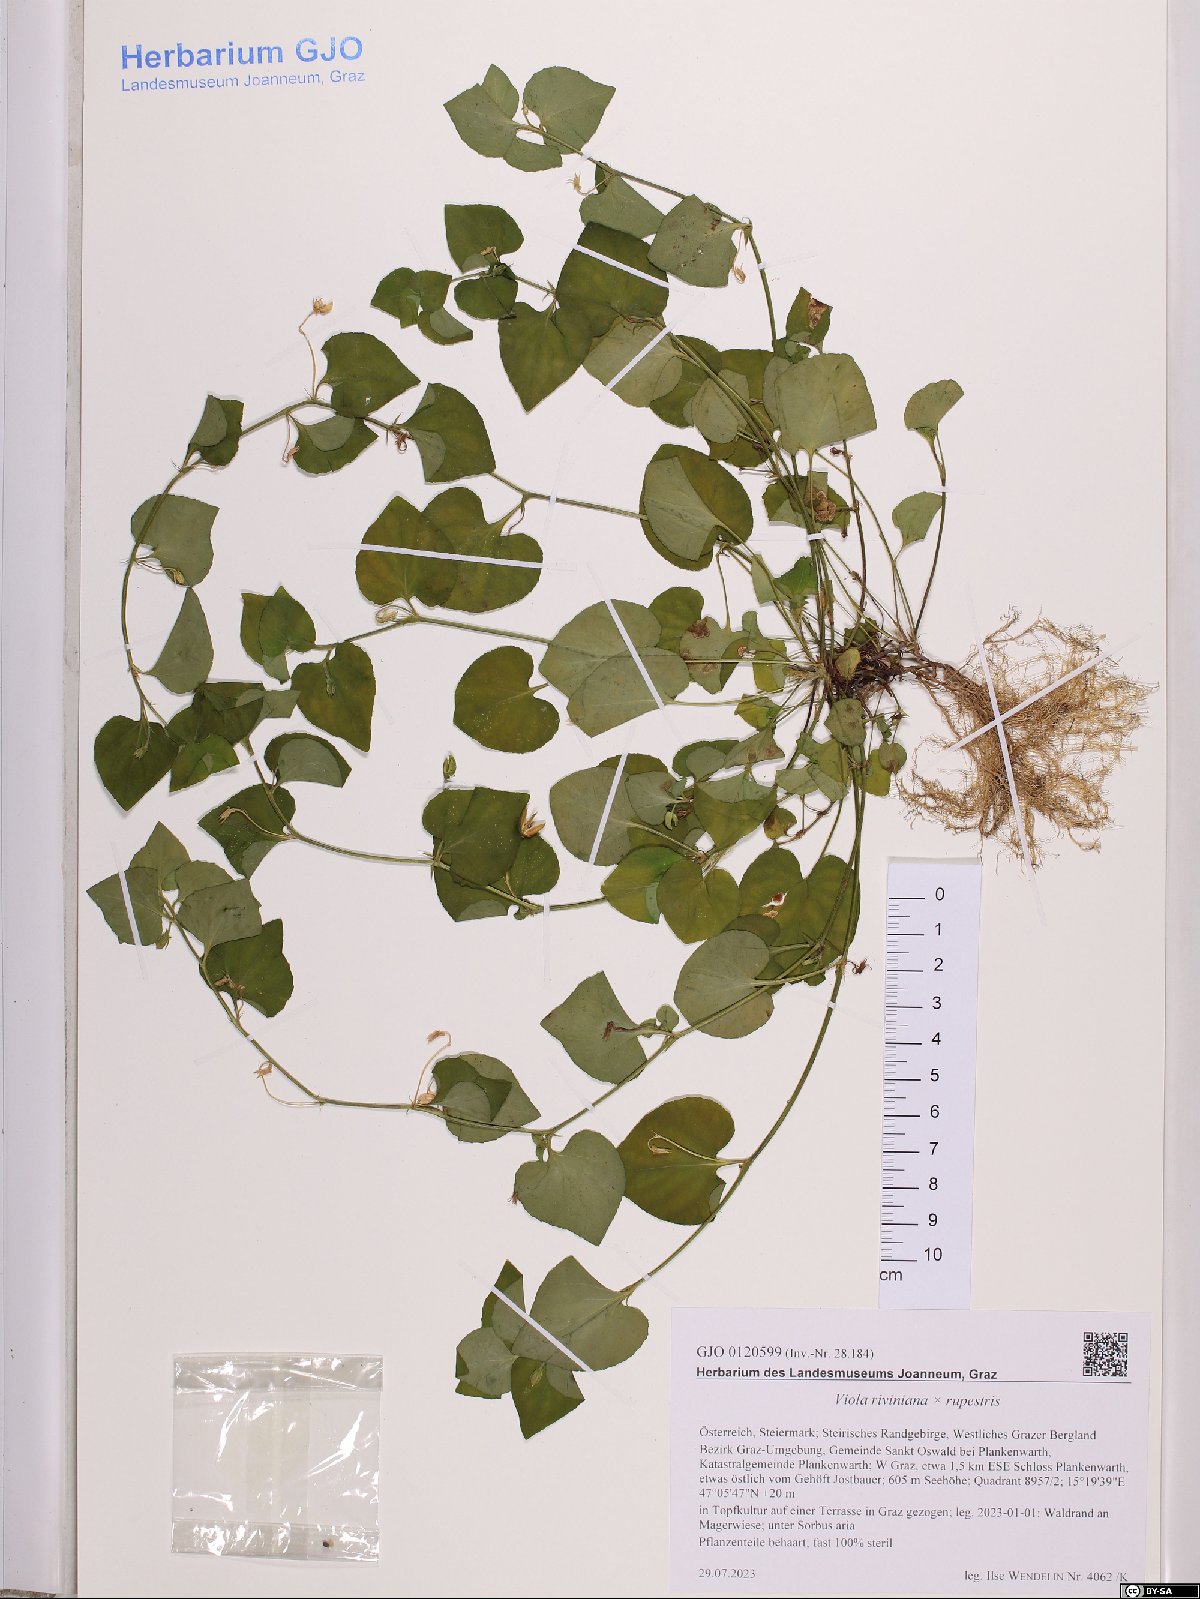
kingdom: Plantae
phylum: Tracheophyta
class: Magnoliopsida
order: Malpighiales
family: Violaceae
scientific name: Violaceae
